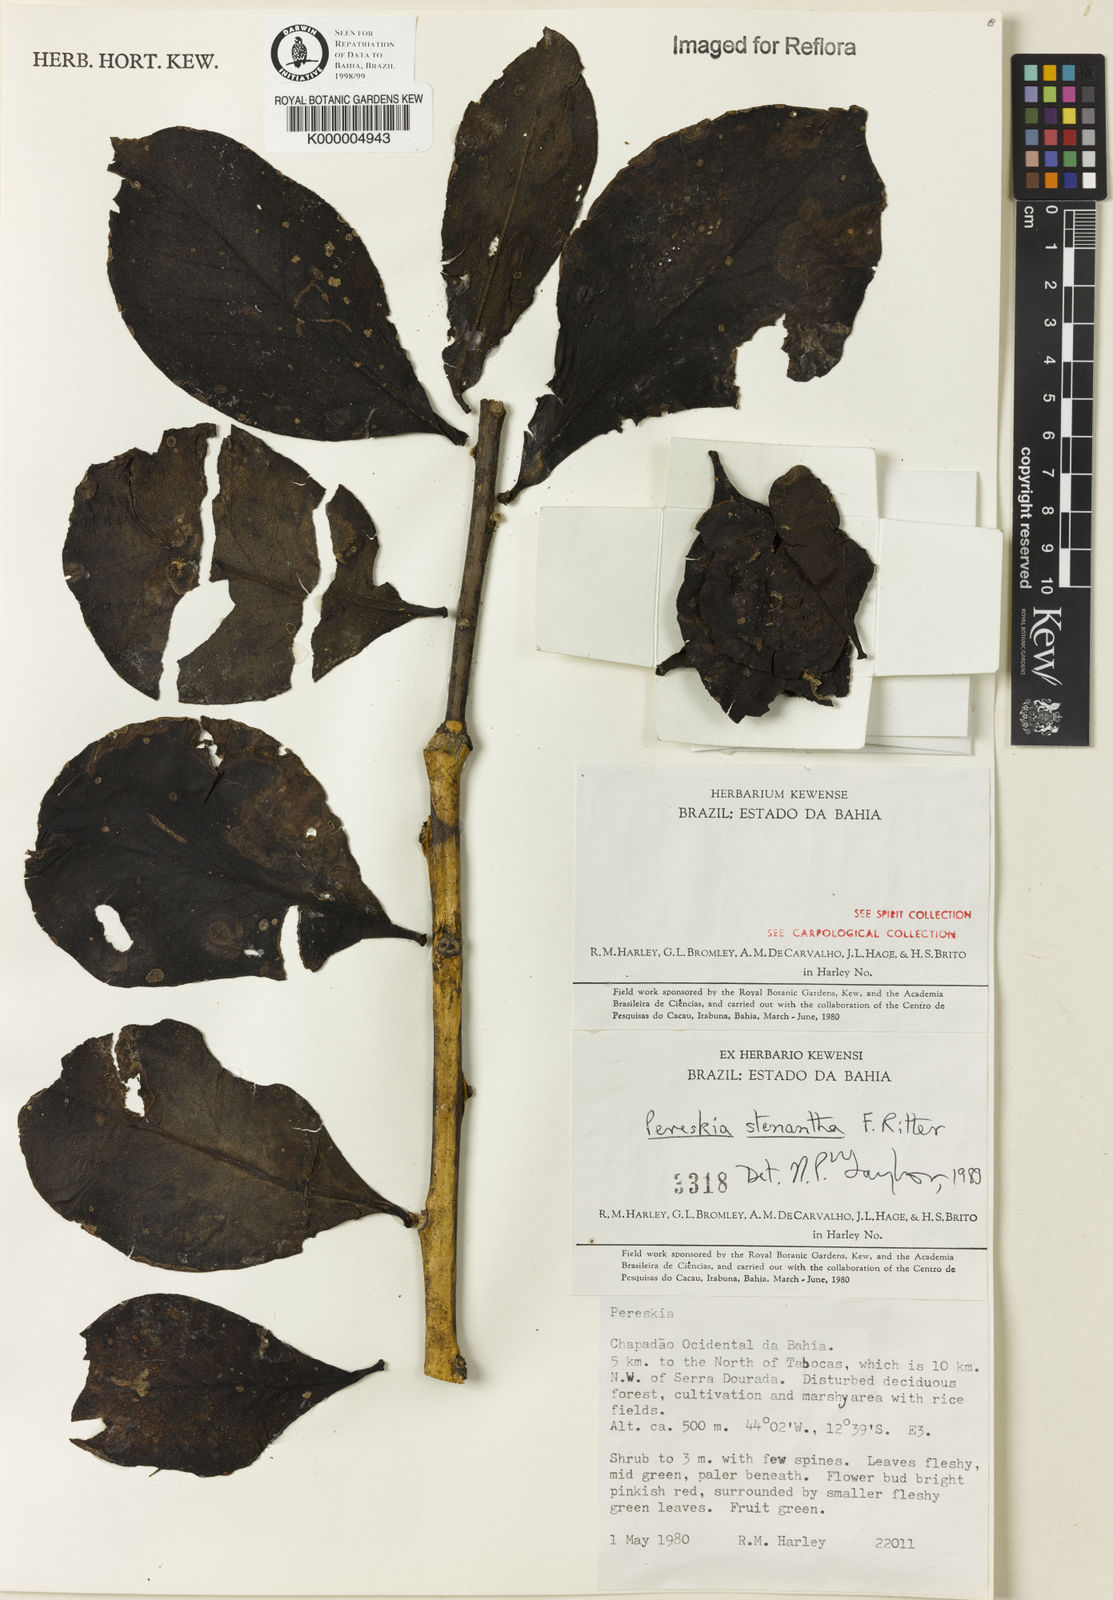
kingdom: Plantae
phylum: Tracheophyta
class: Magnoliopsida
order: Caryophyllales
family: Cactaceae
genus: Pereskia
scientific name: Pereskia stenantha
